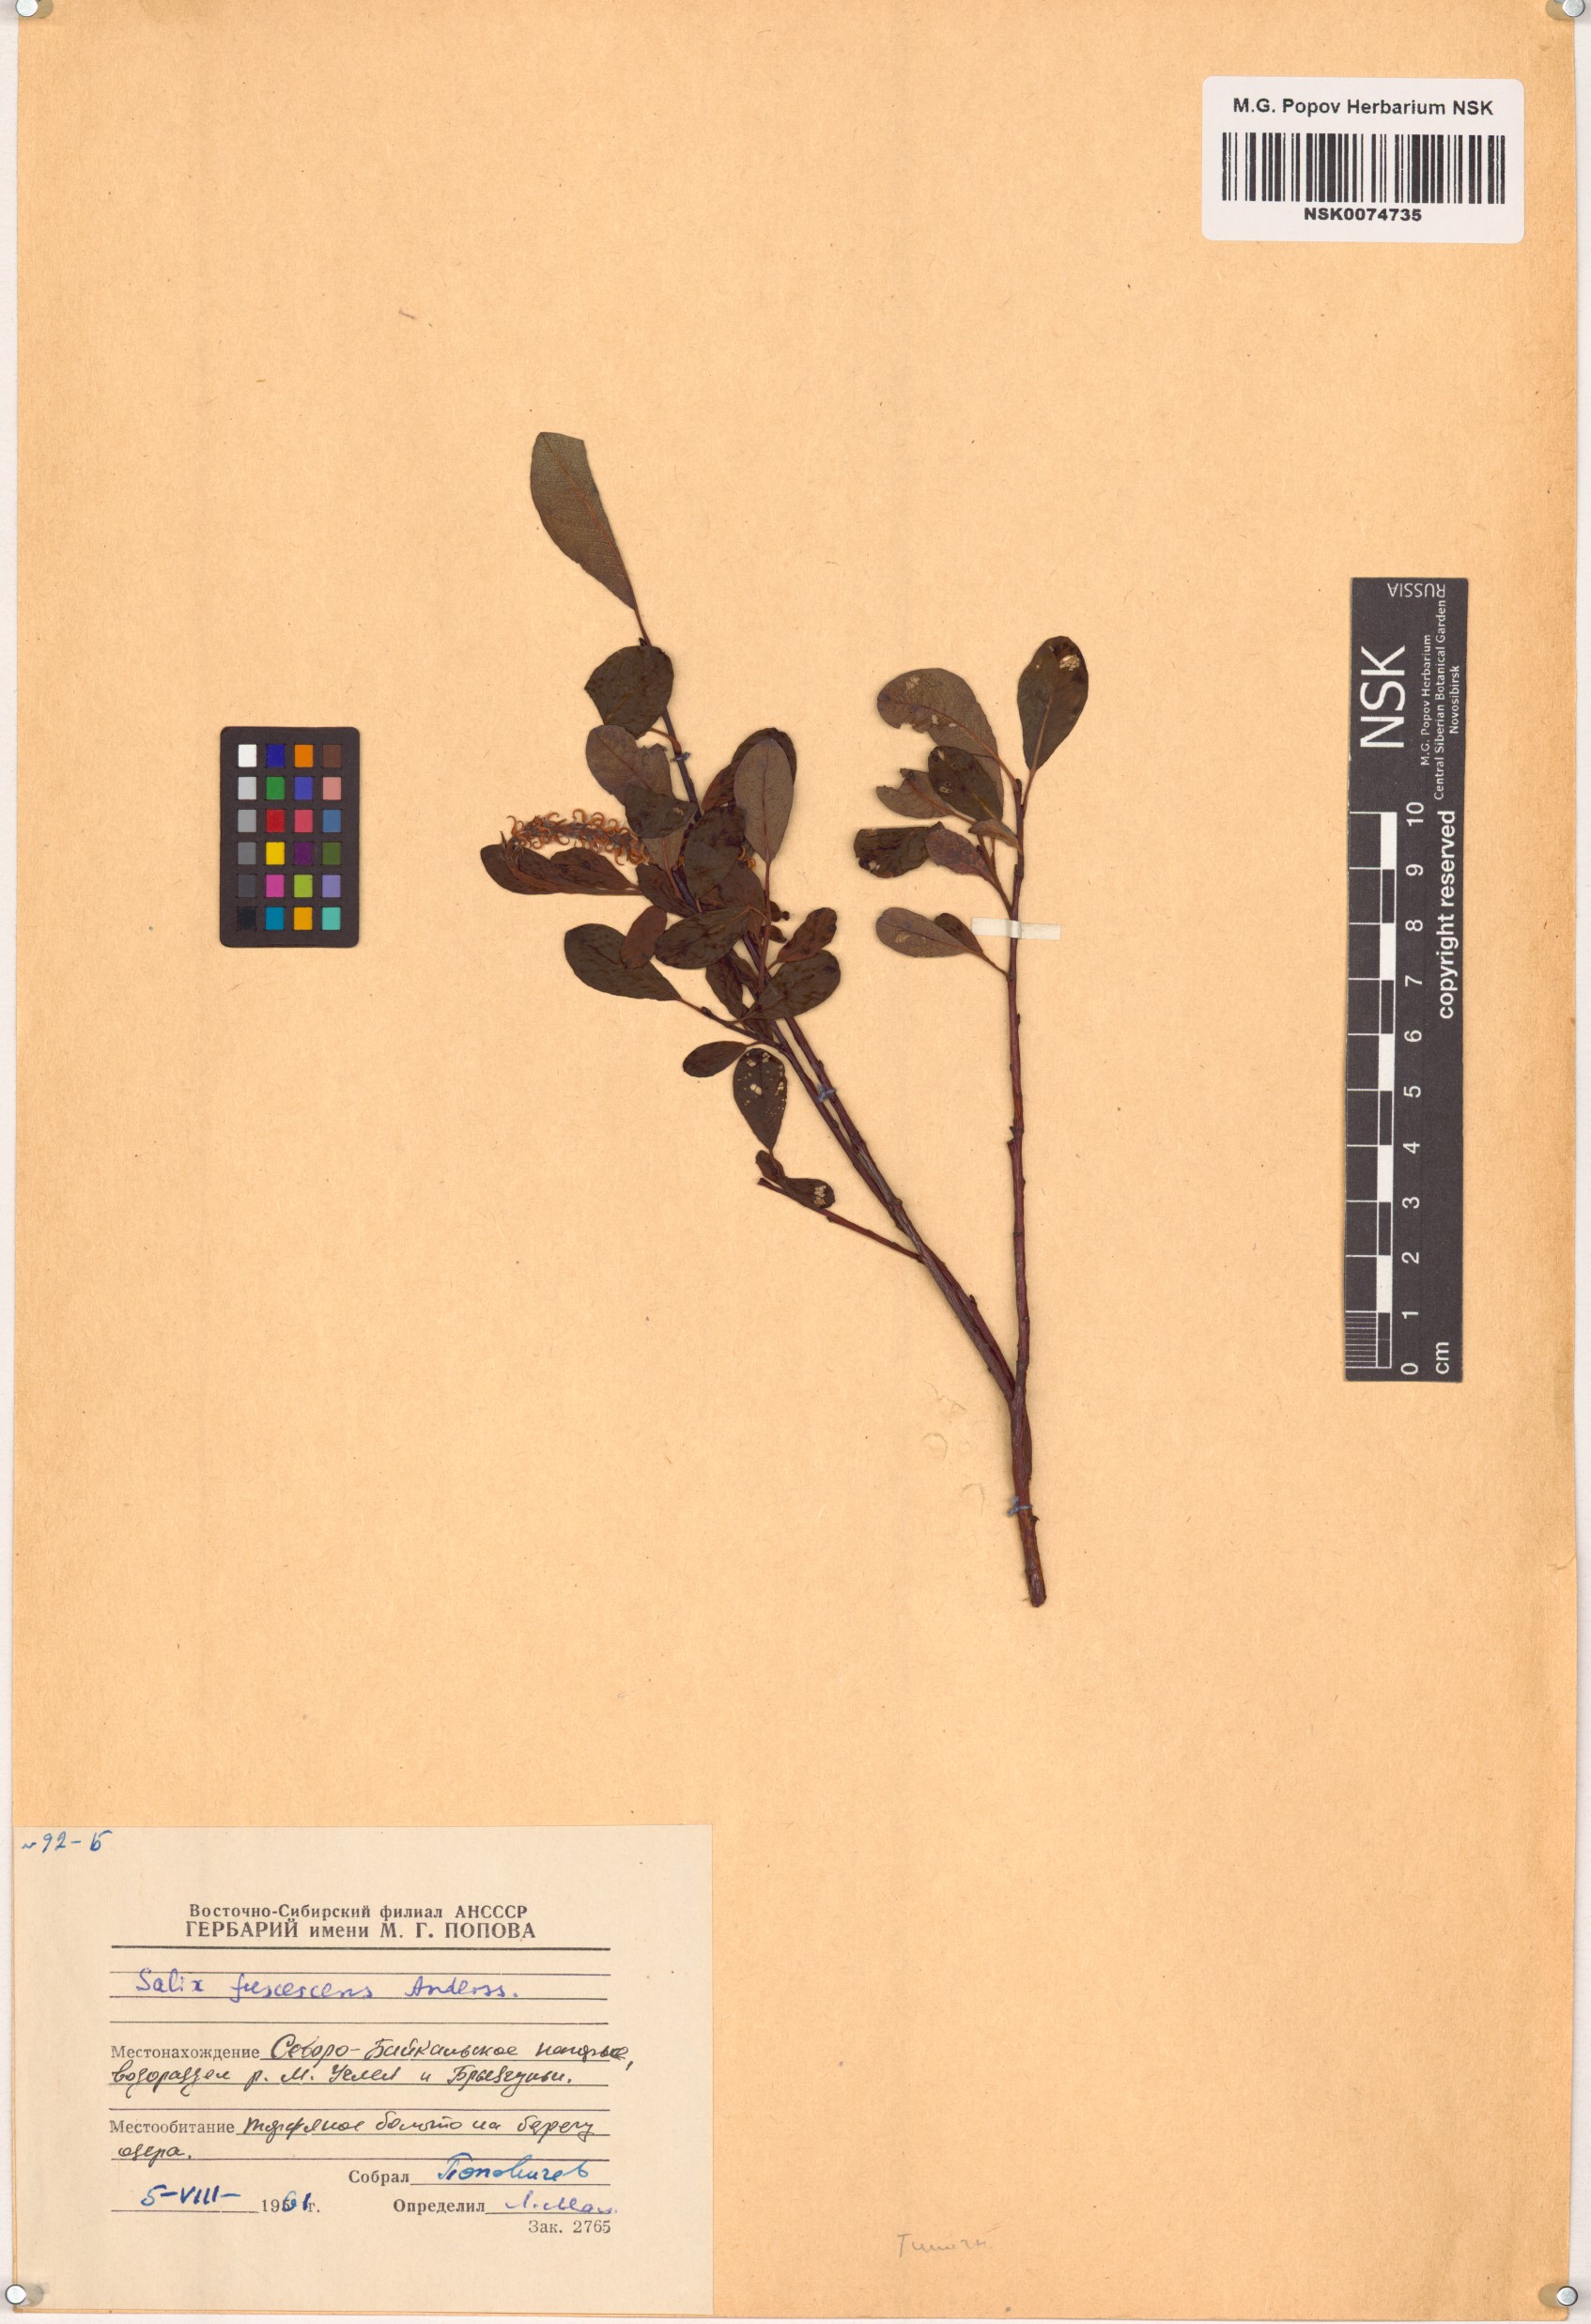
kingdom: Plantae
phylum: Tracheophyta
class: Magnoliopsida
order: Malpighiales
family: Salicaceae
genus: Salix
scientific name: Salix fuscescens
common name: Brownish willow
